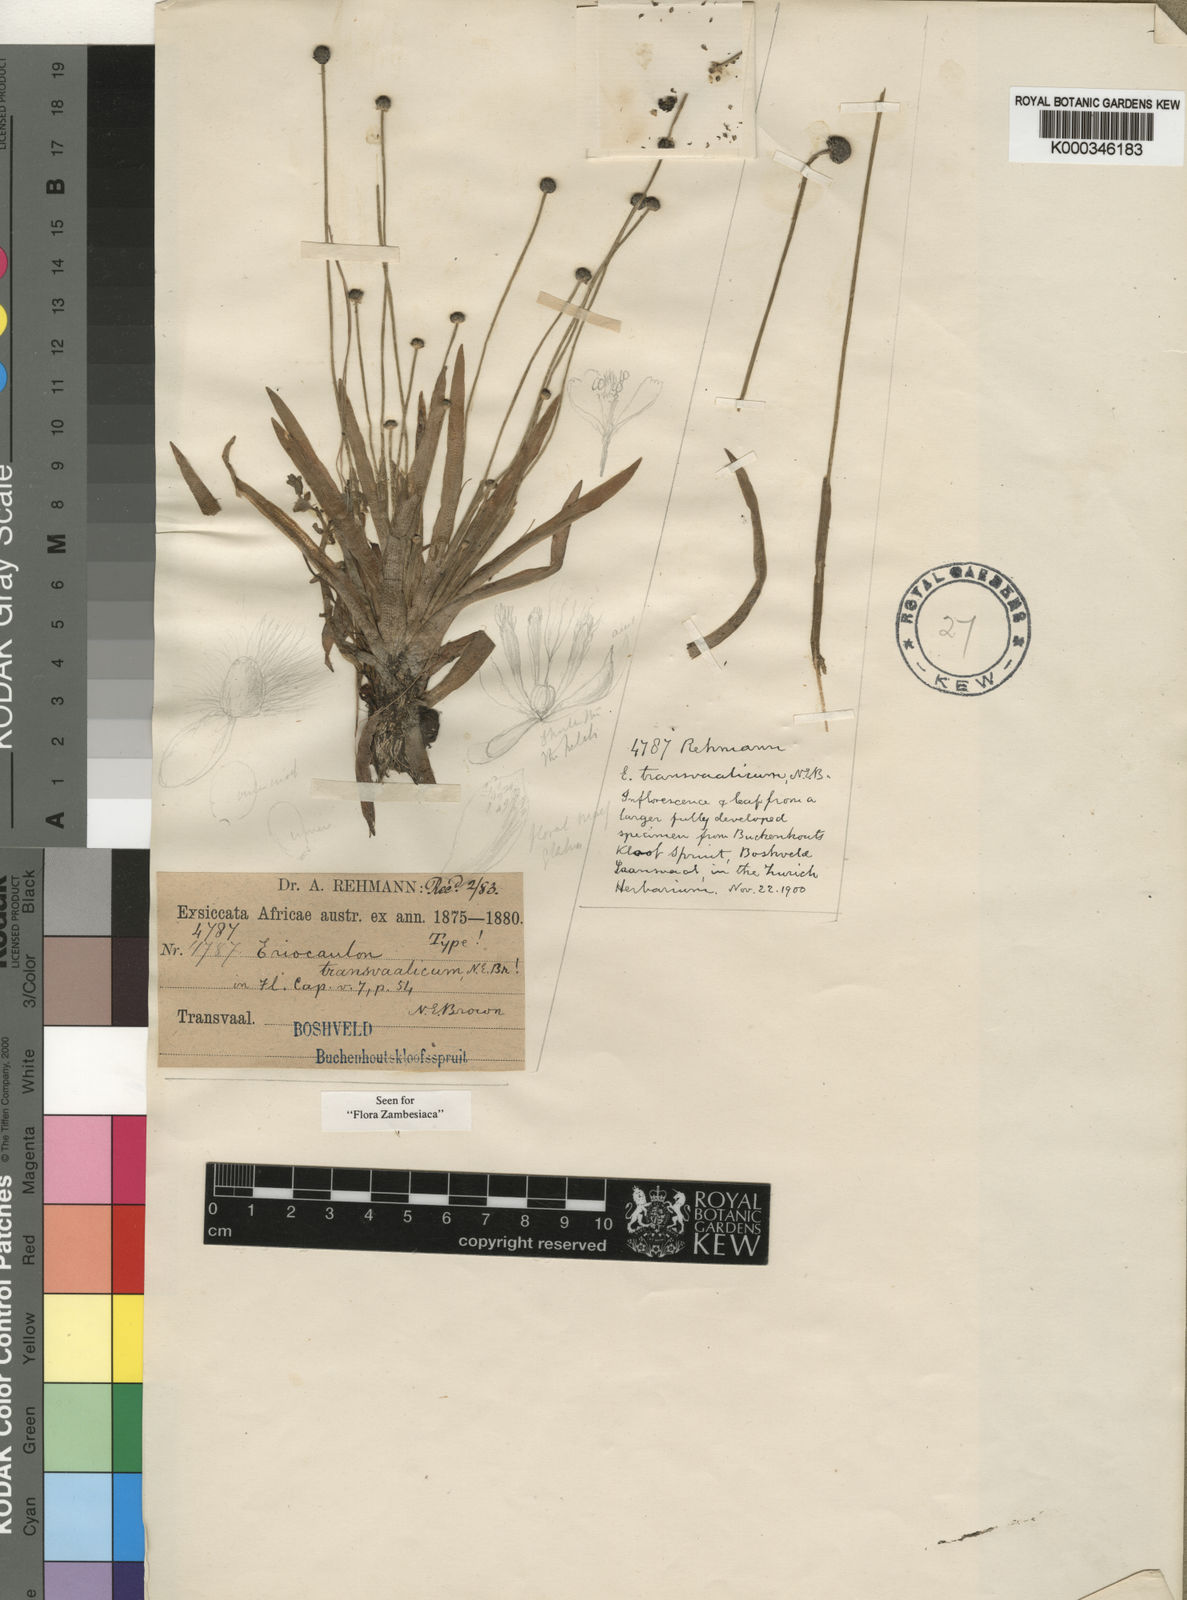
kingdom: Plantae
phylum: Tracheophyta
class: Liliopsida
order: Poales
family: Eriocaulaceae
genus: Eriocaulon
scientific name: Eriocaulon transvaalicum
